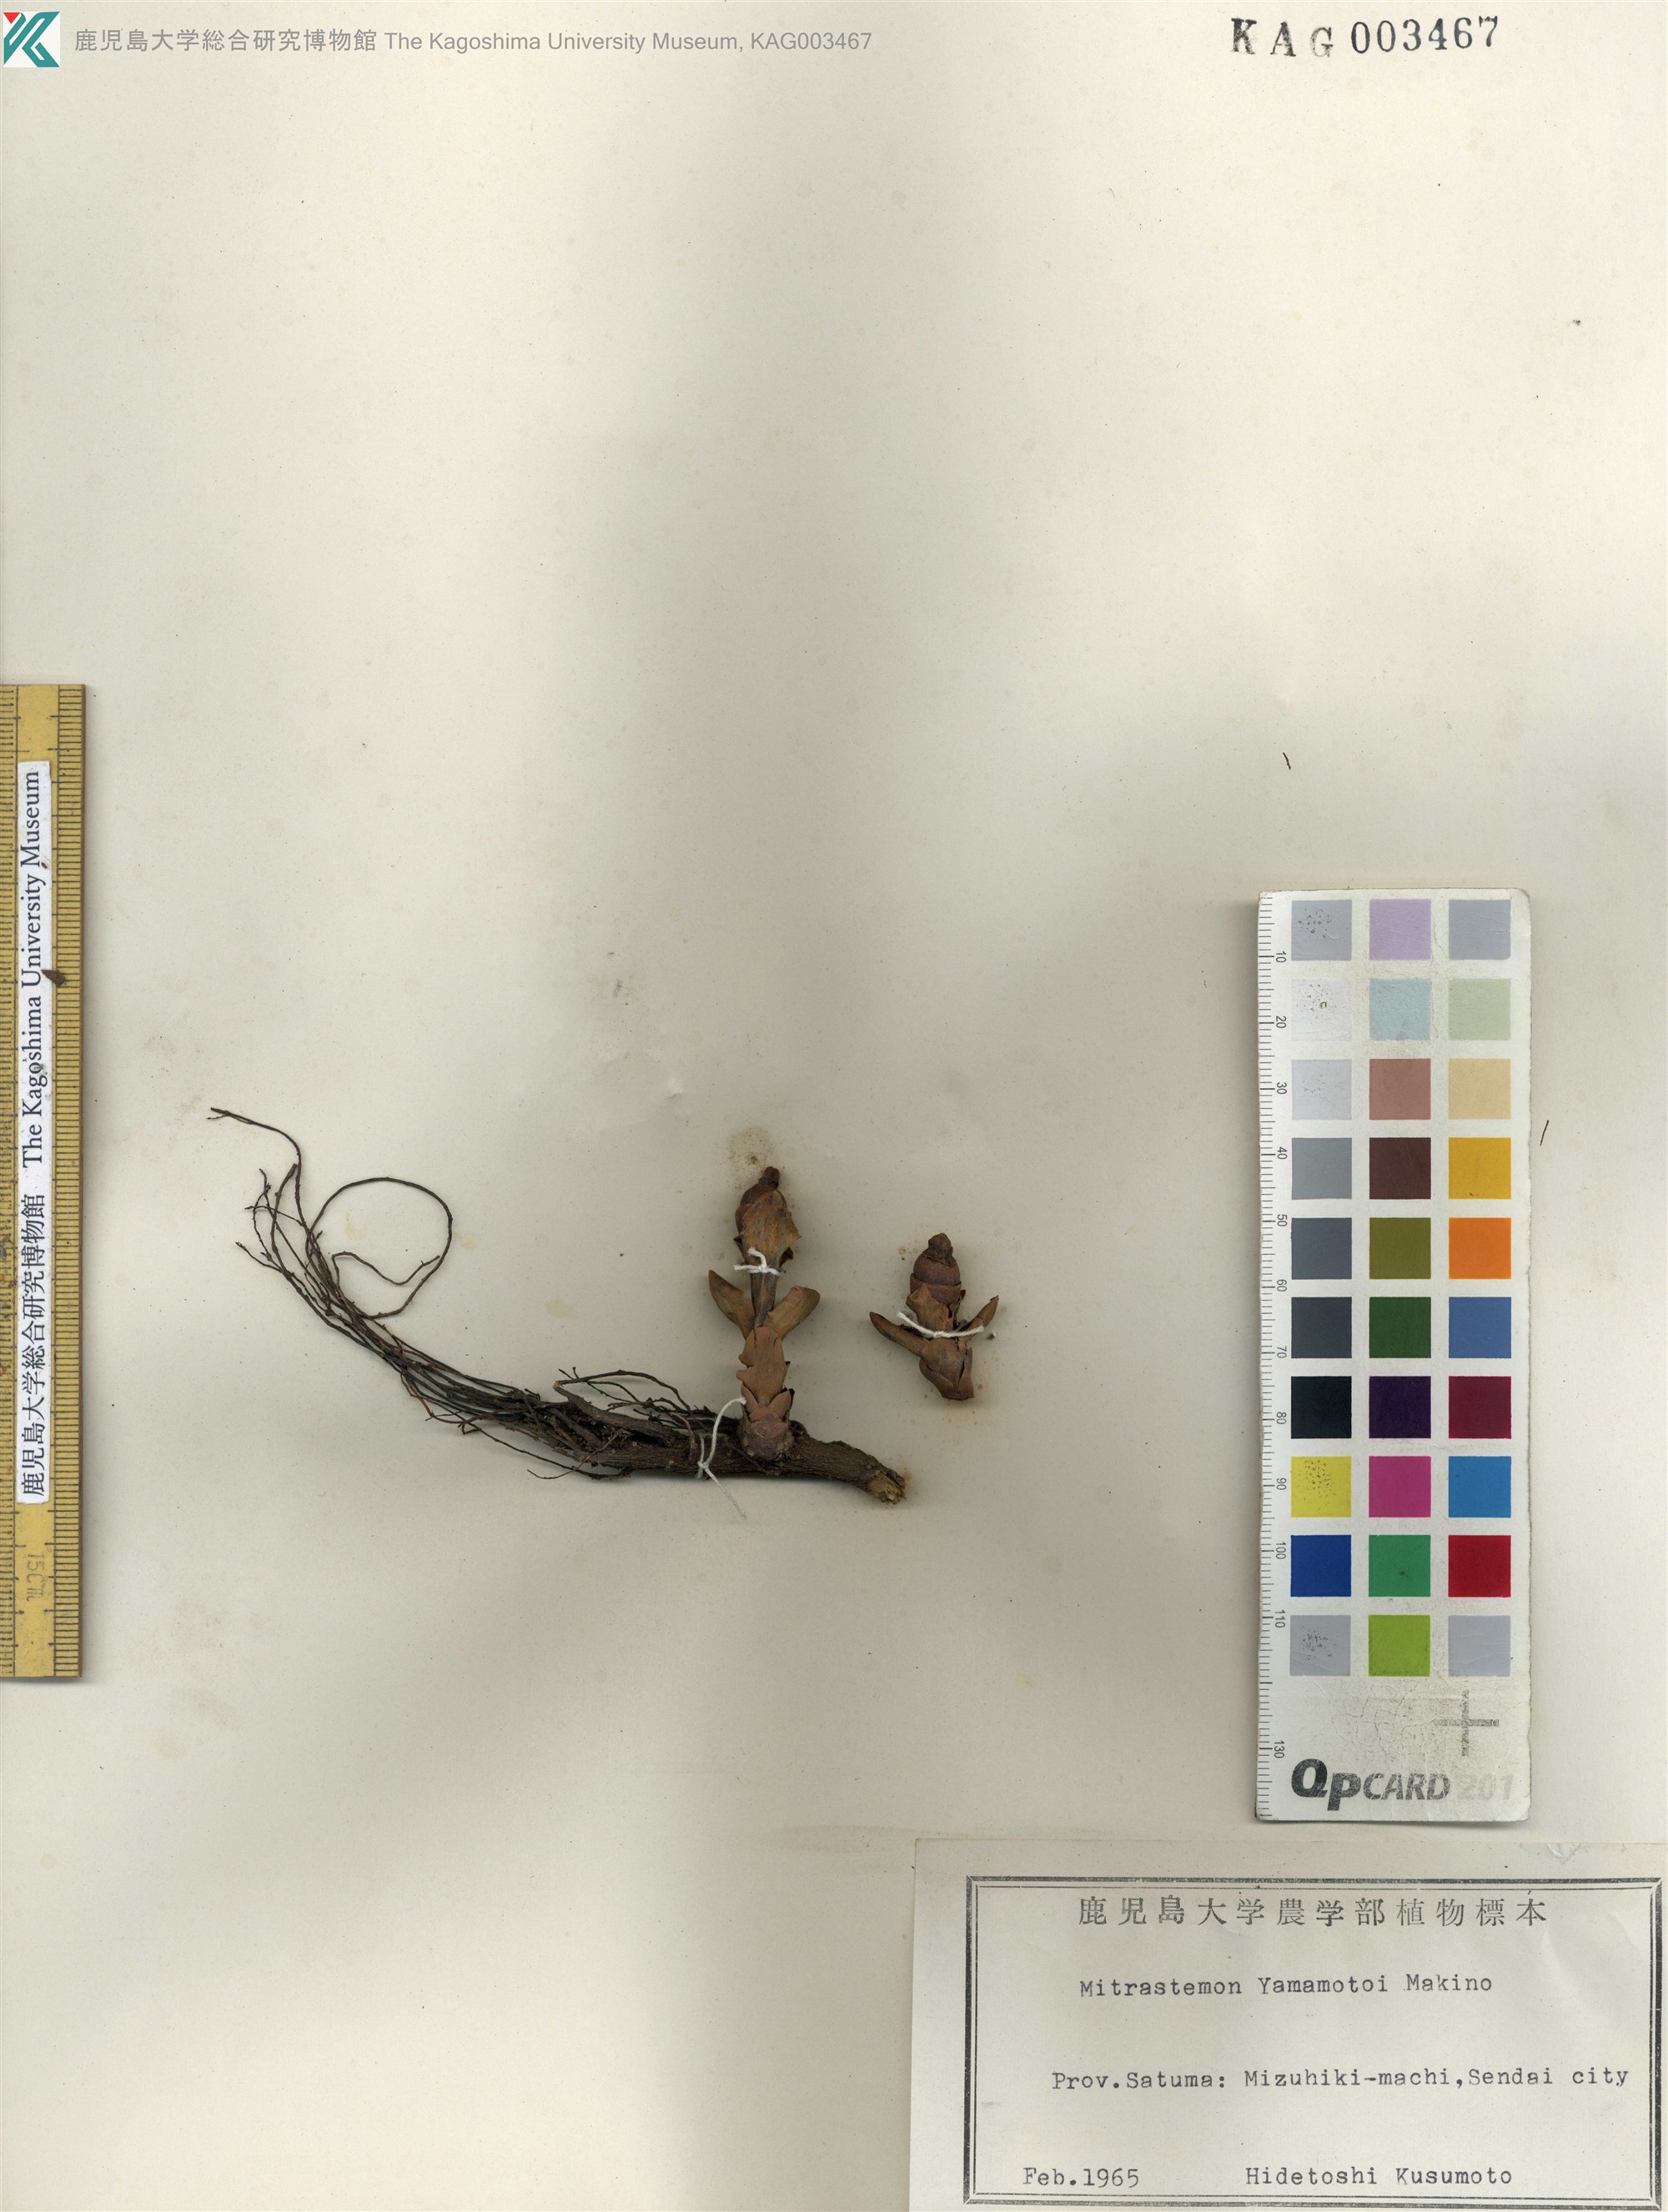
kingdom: Plantae
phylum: Tracheophyta
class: Magnoliopsida
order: Ericales
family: Mitrastemonaceae
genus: Mitrastemon
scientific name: Mitrastemon yamamotoi
